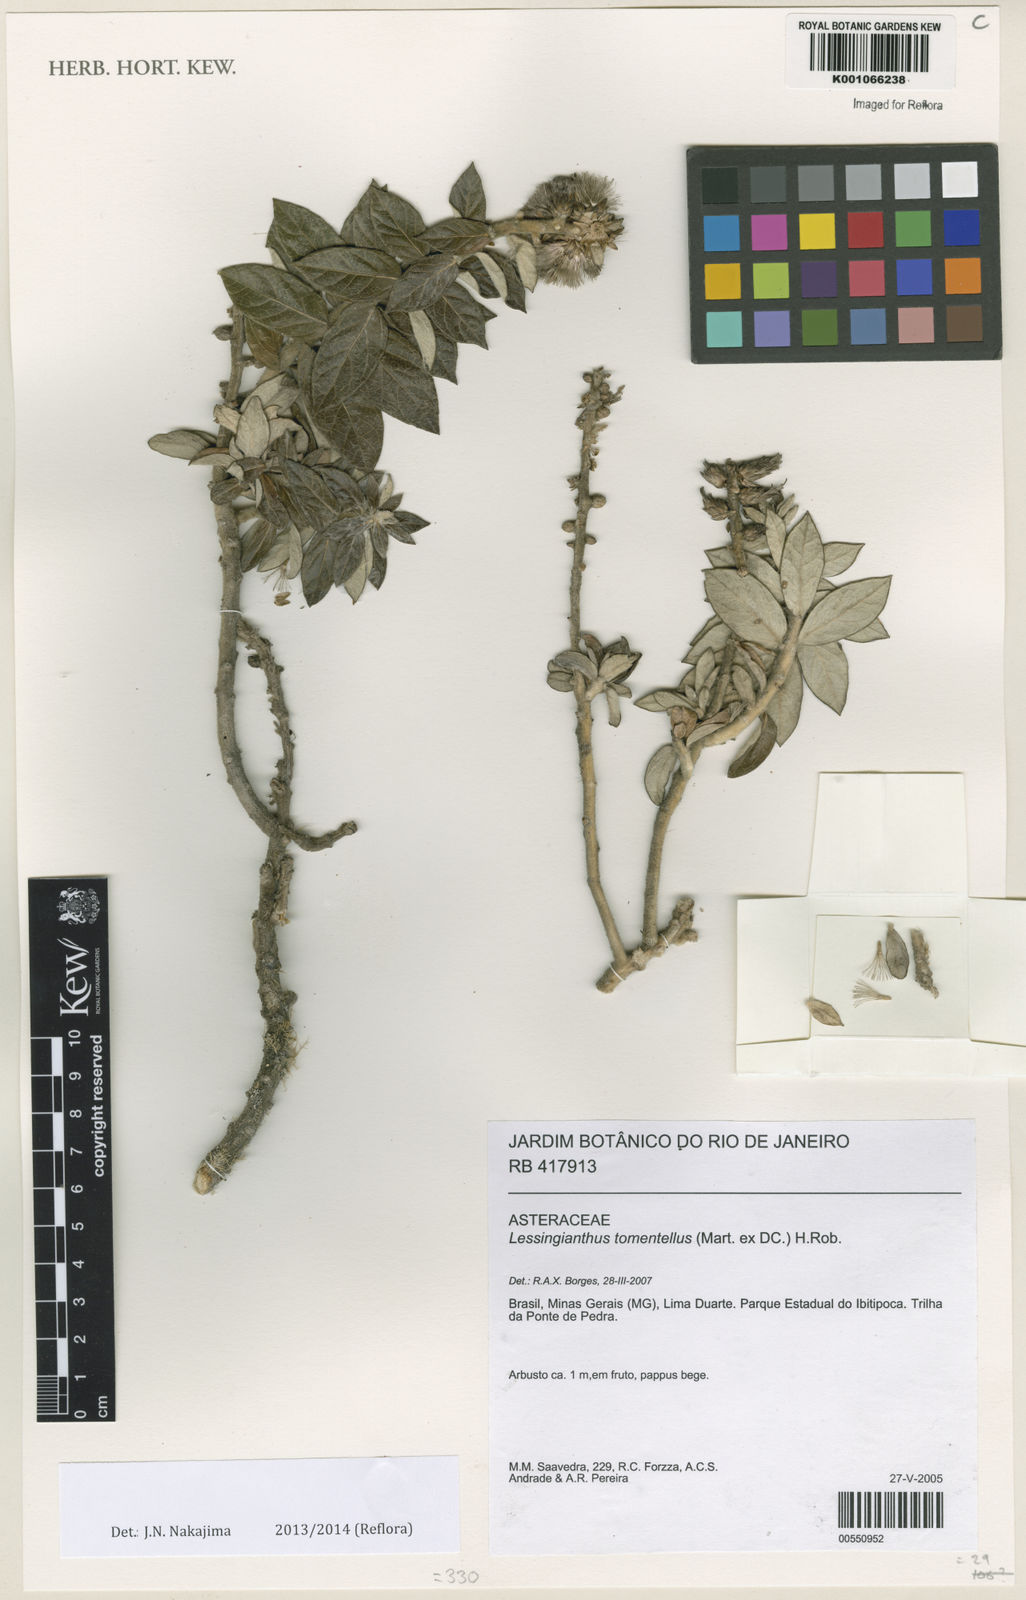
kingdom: Plantae
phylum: Tracheophyta
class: Magnoliopsida
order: Asterales
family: Asteraceae
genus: Lessingianthus
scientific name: Lessingianthus tomentellus
